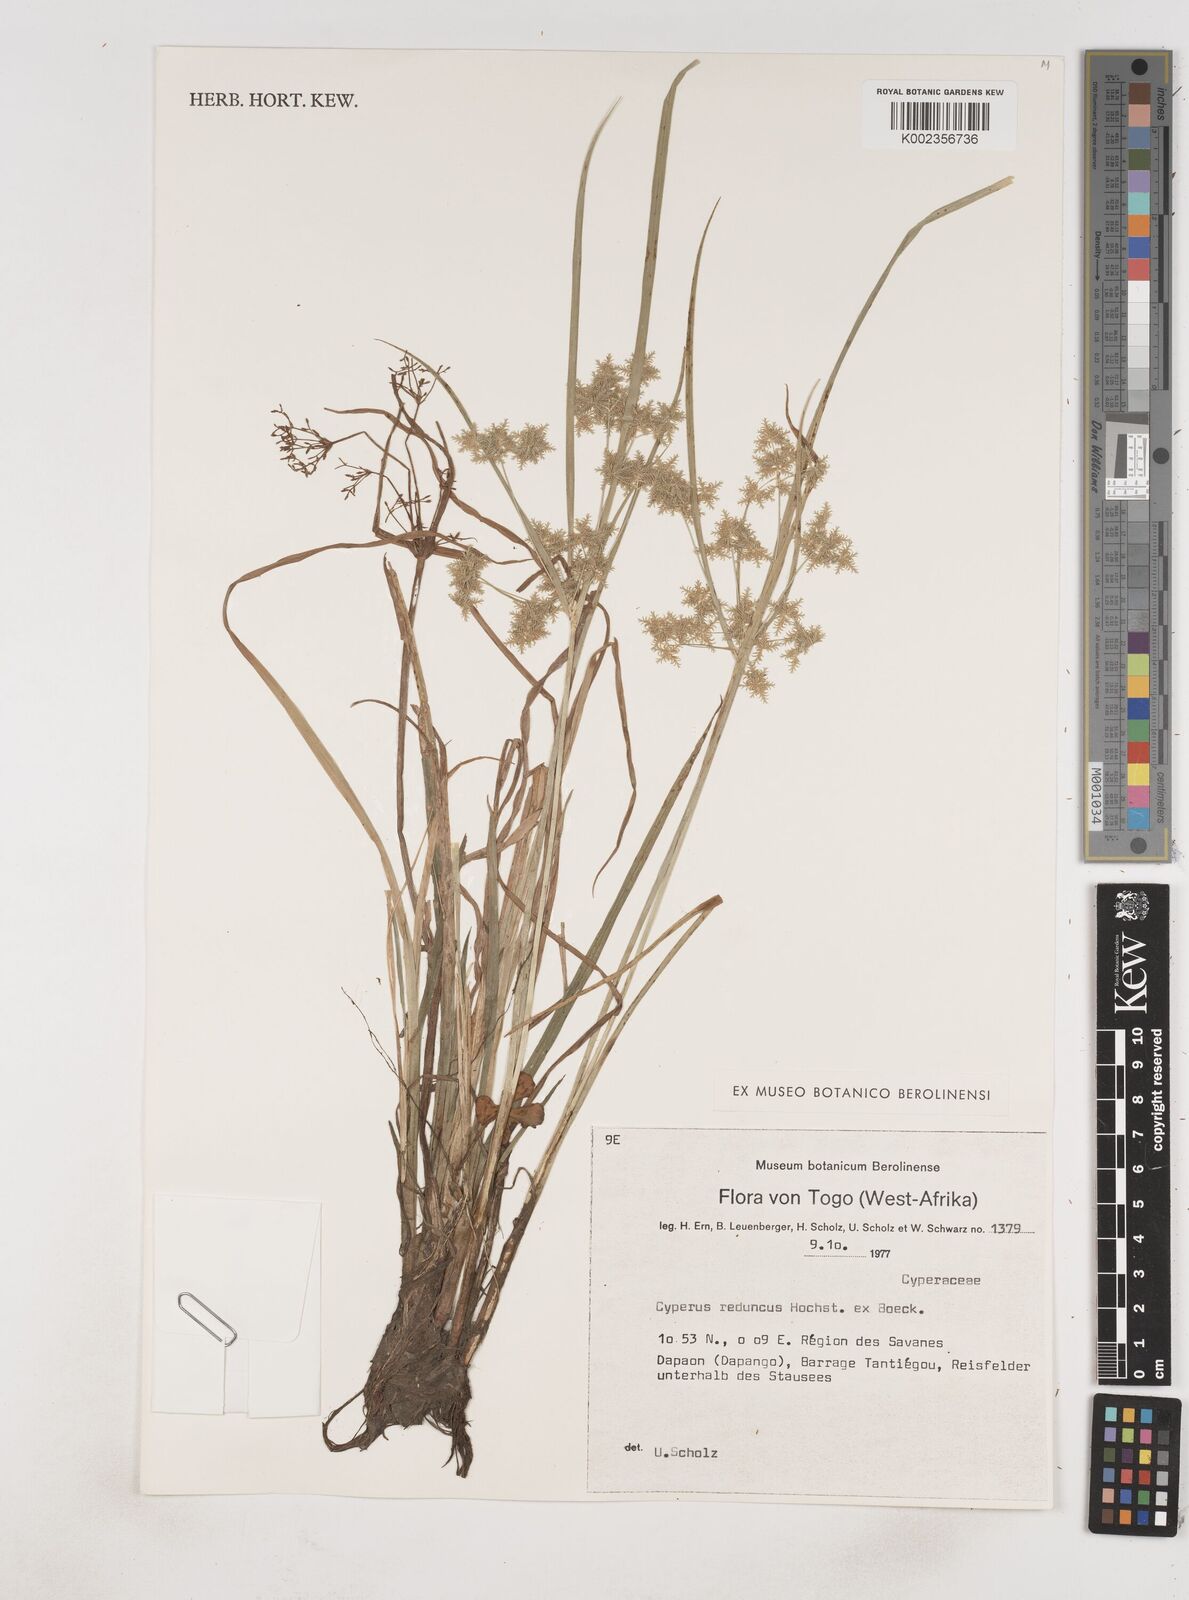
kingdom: Plantae
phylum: Tracheophyta
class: Liliopsida
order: Poales
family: Cyperaceae
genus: Cyperus
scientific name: Cyperus reduncus
